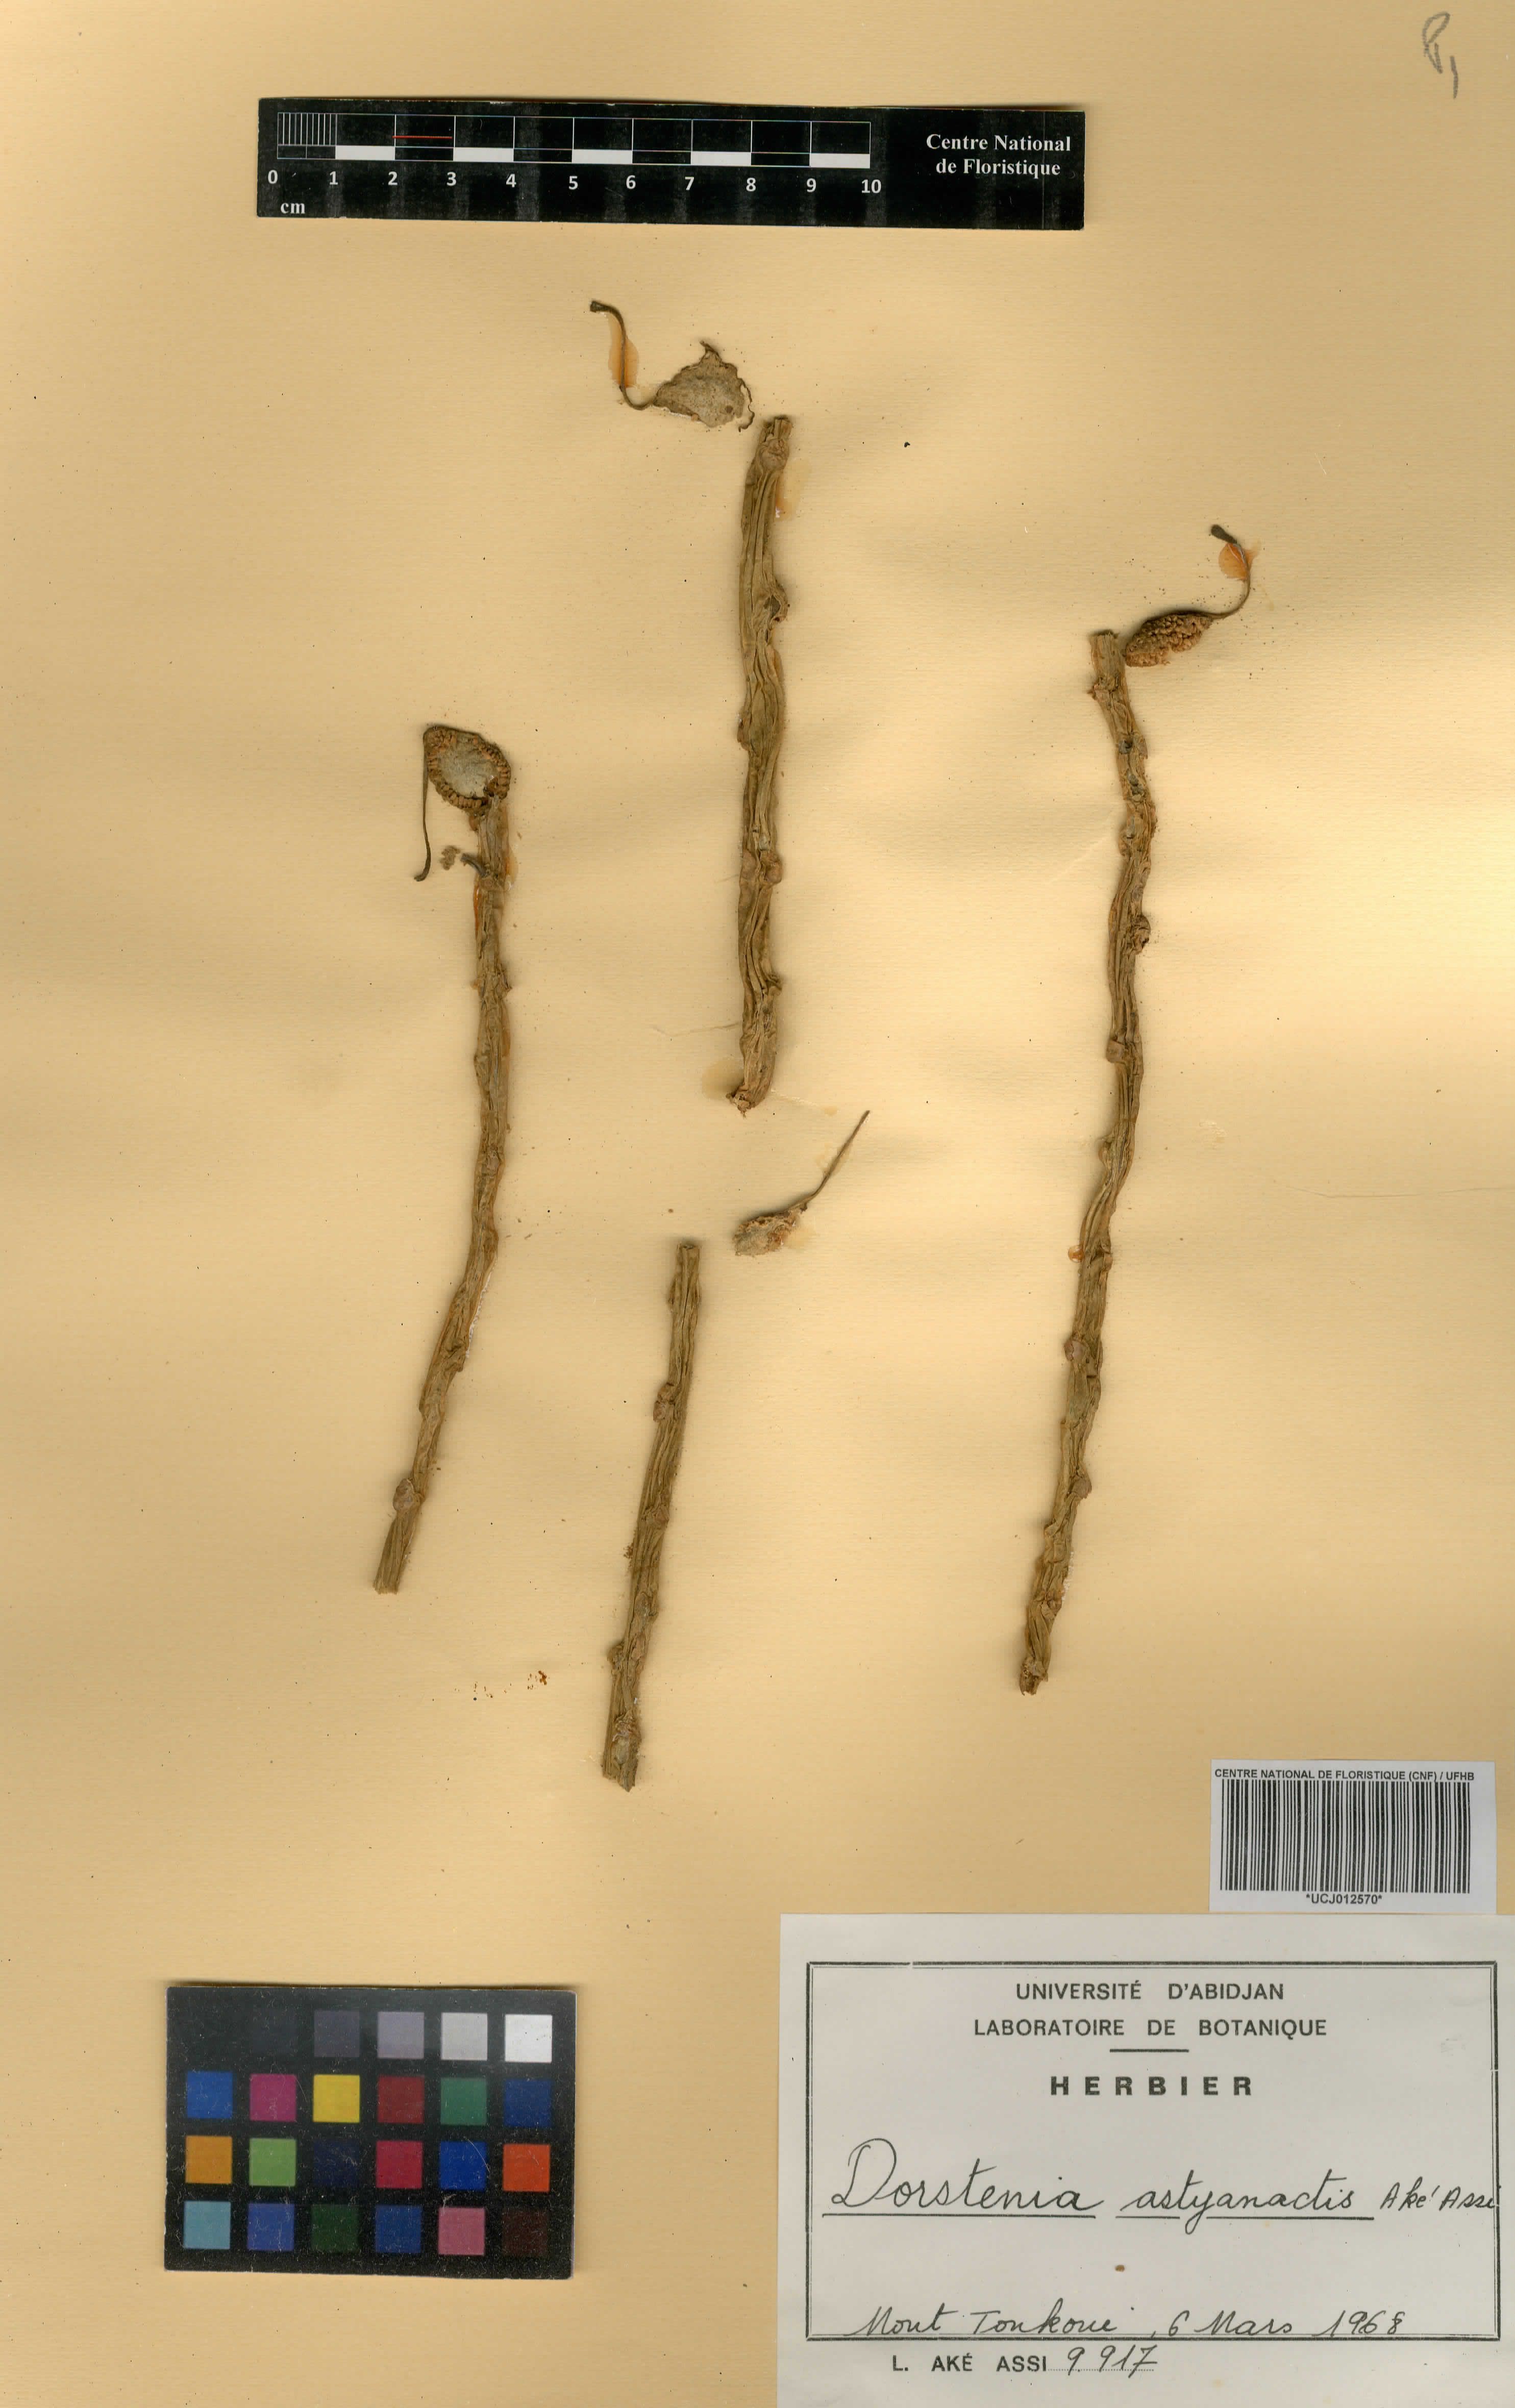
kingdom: Plantae
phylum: Tracheophyta
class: Magnoliopsida
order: Rosales
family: Moraceae
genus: Dorstenia
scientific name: Dorstenia astyanactis
